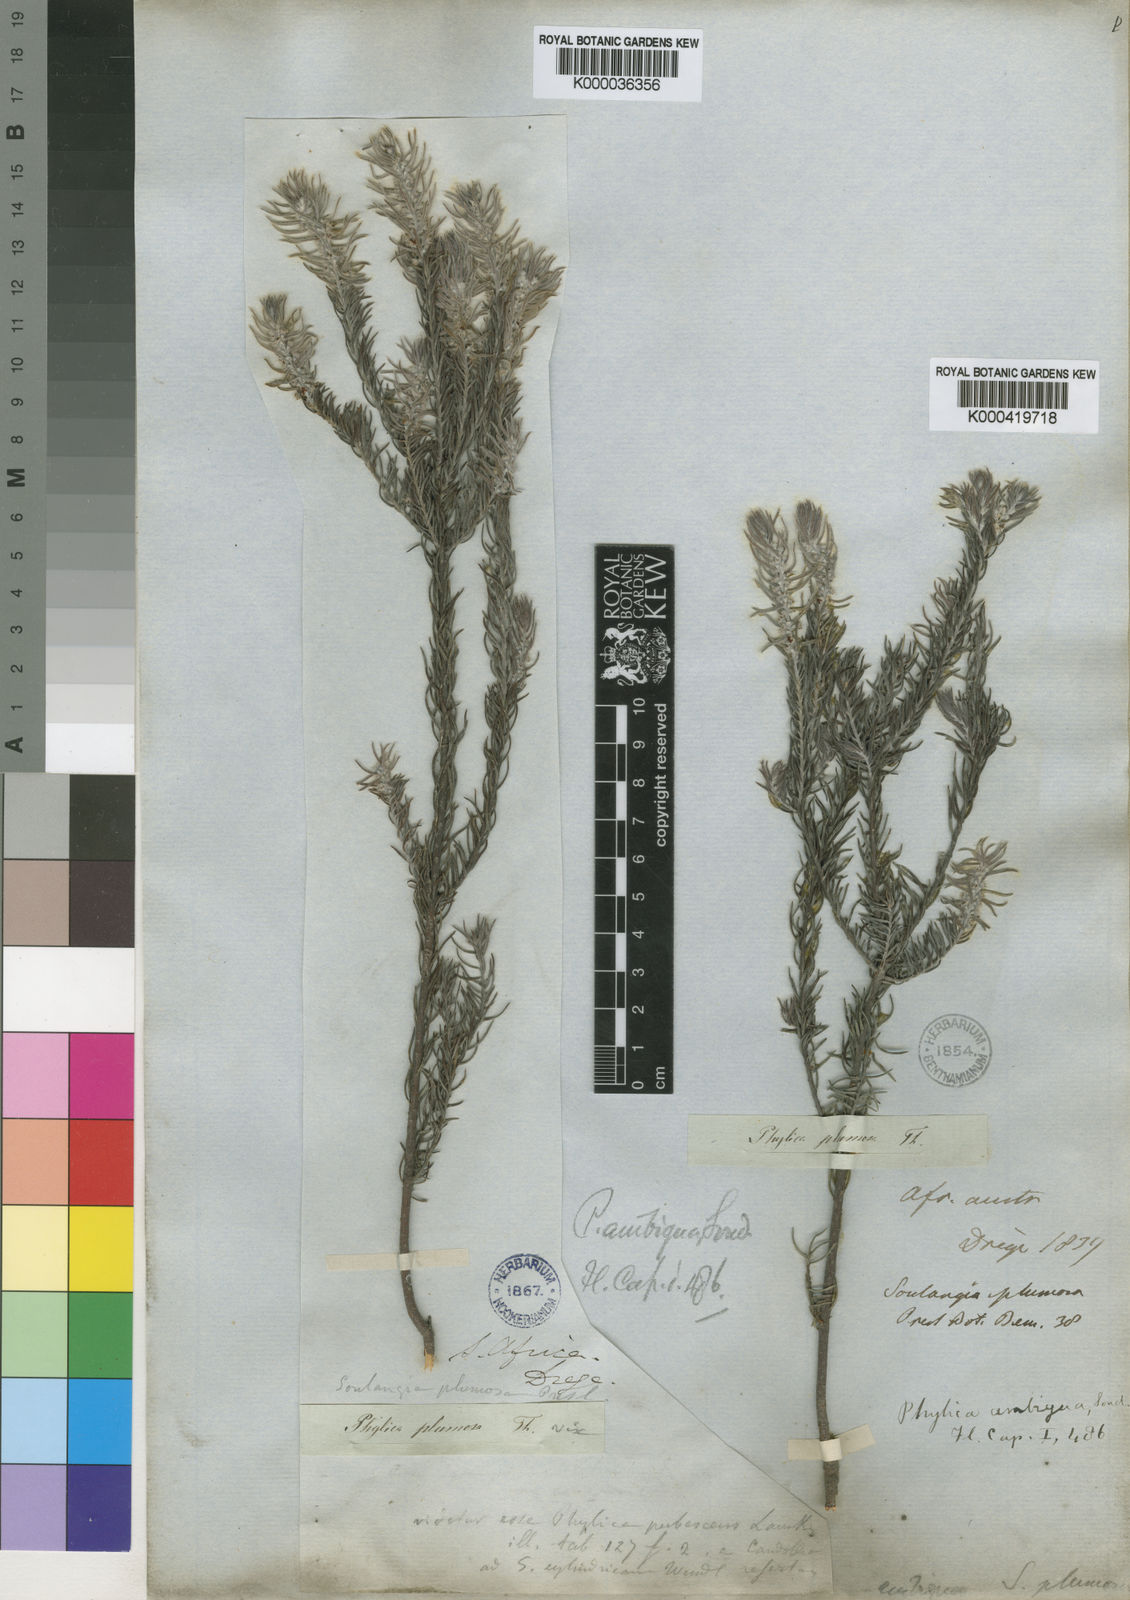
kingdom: Plantae
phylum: Tracheophyta
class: Magnoliopsida
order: Rosales
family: Rhamnaceae
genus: Phylica
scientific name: Phylica ambigua
